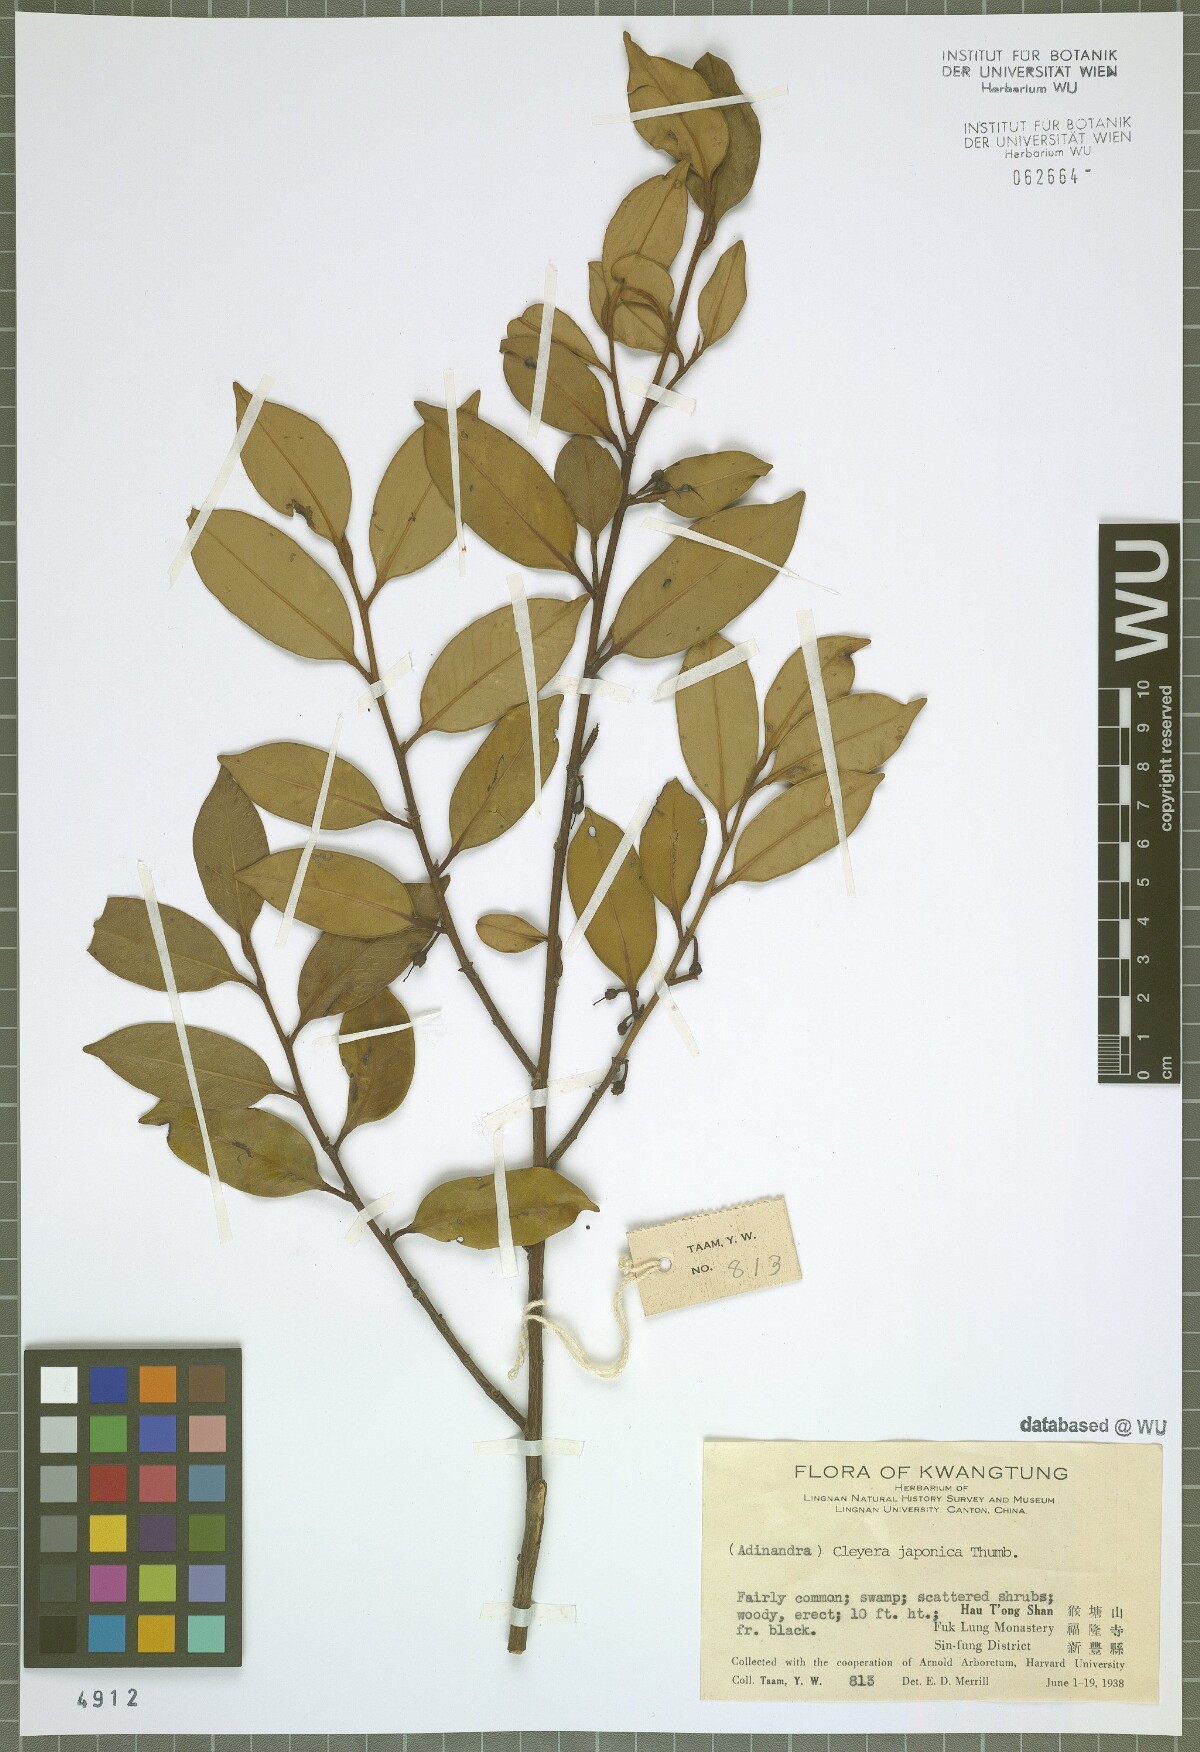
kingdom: Plantae
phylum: Tracheophyta
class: Magnoliopsida
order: Ericales
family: Pentaphylacaceae
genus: Cleyera
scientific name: Cleyera japonica
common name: Sakaki
